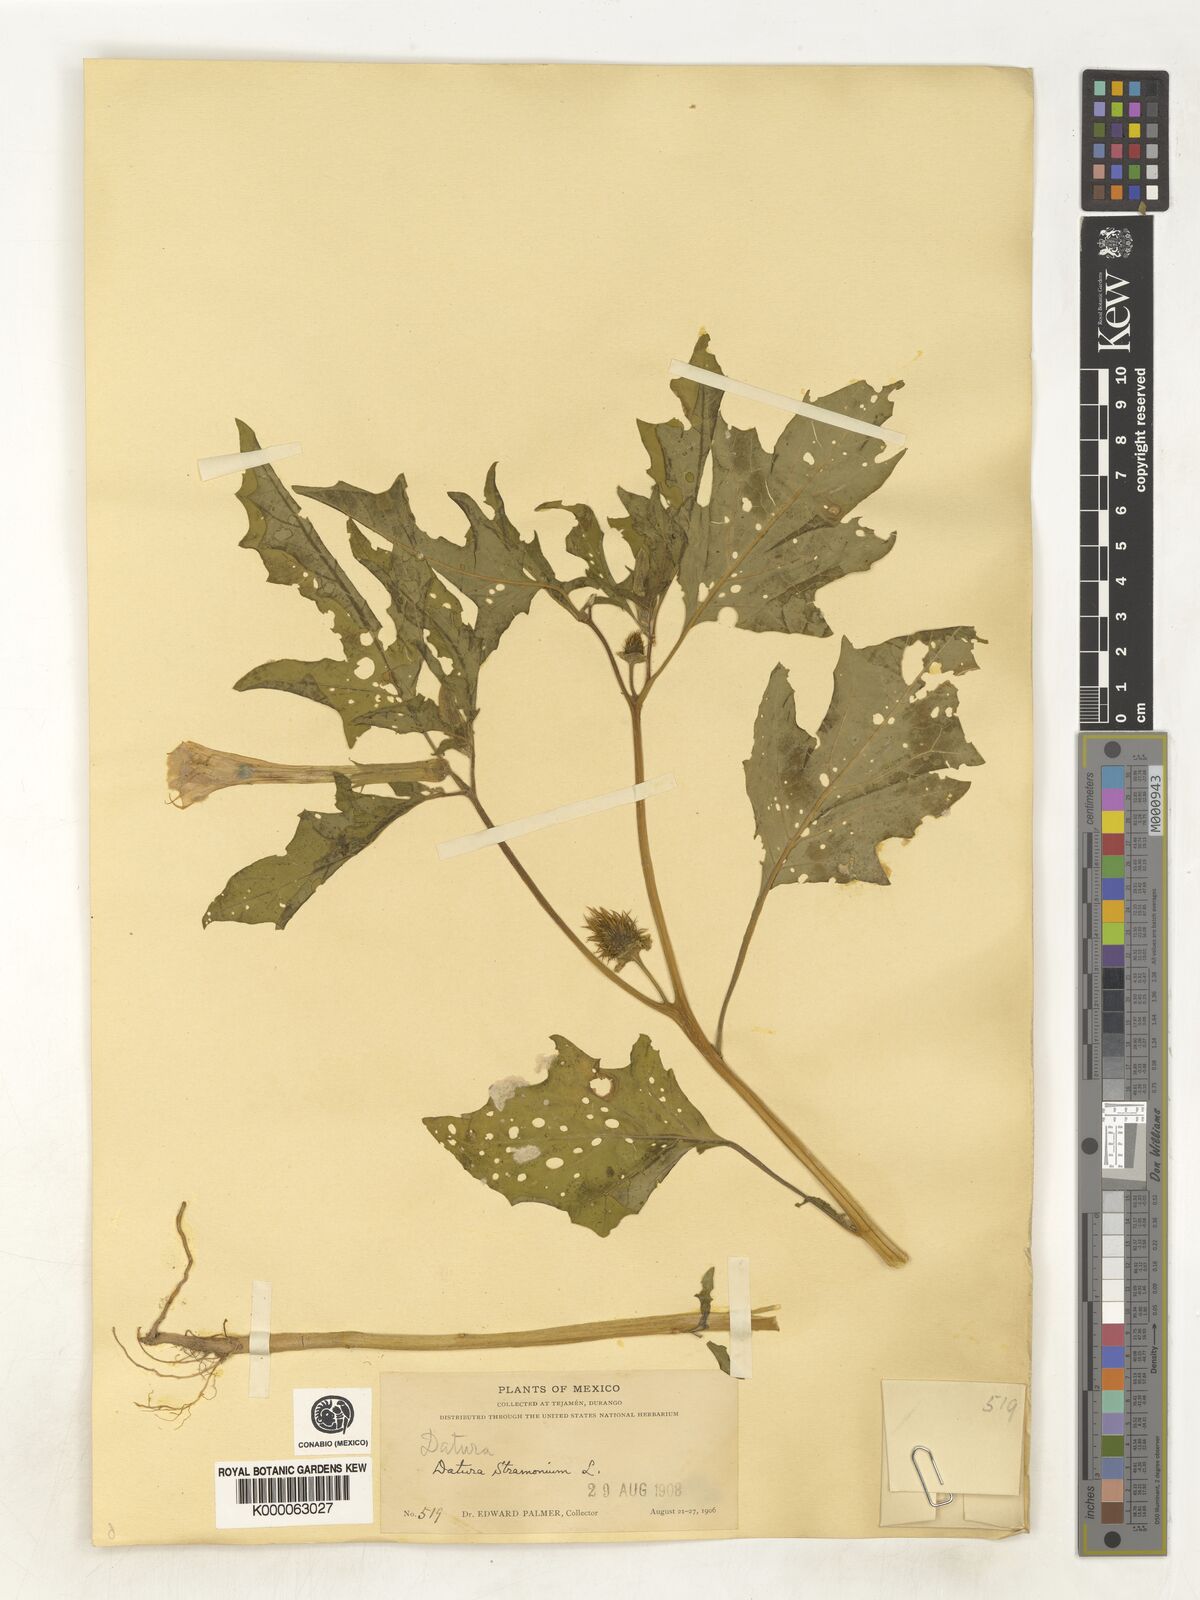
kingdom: Plantae
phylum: Tracheophyta
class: Magnoliopsida
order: Solanales
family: Solanaceae
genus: Datura
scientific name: Datura stramonium
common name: Thorn-apple
